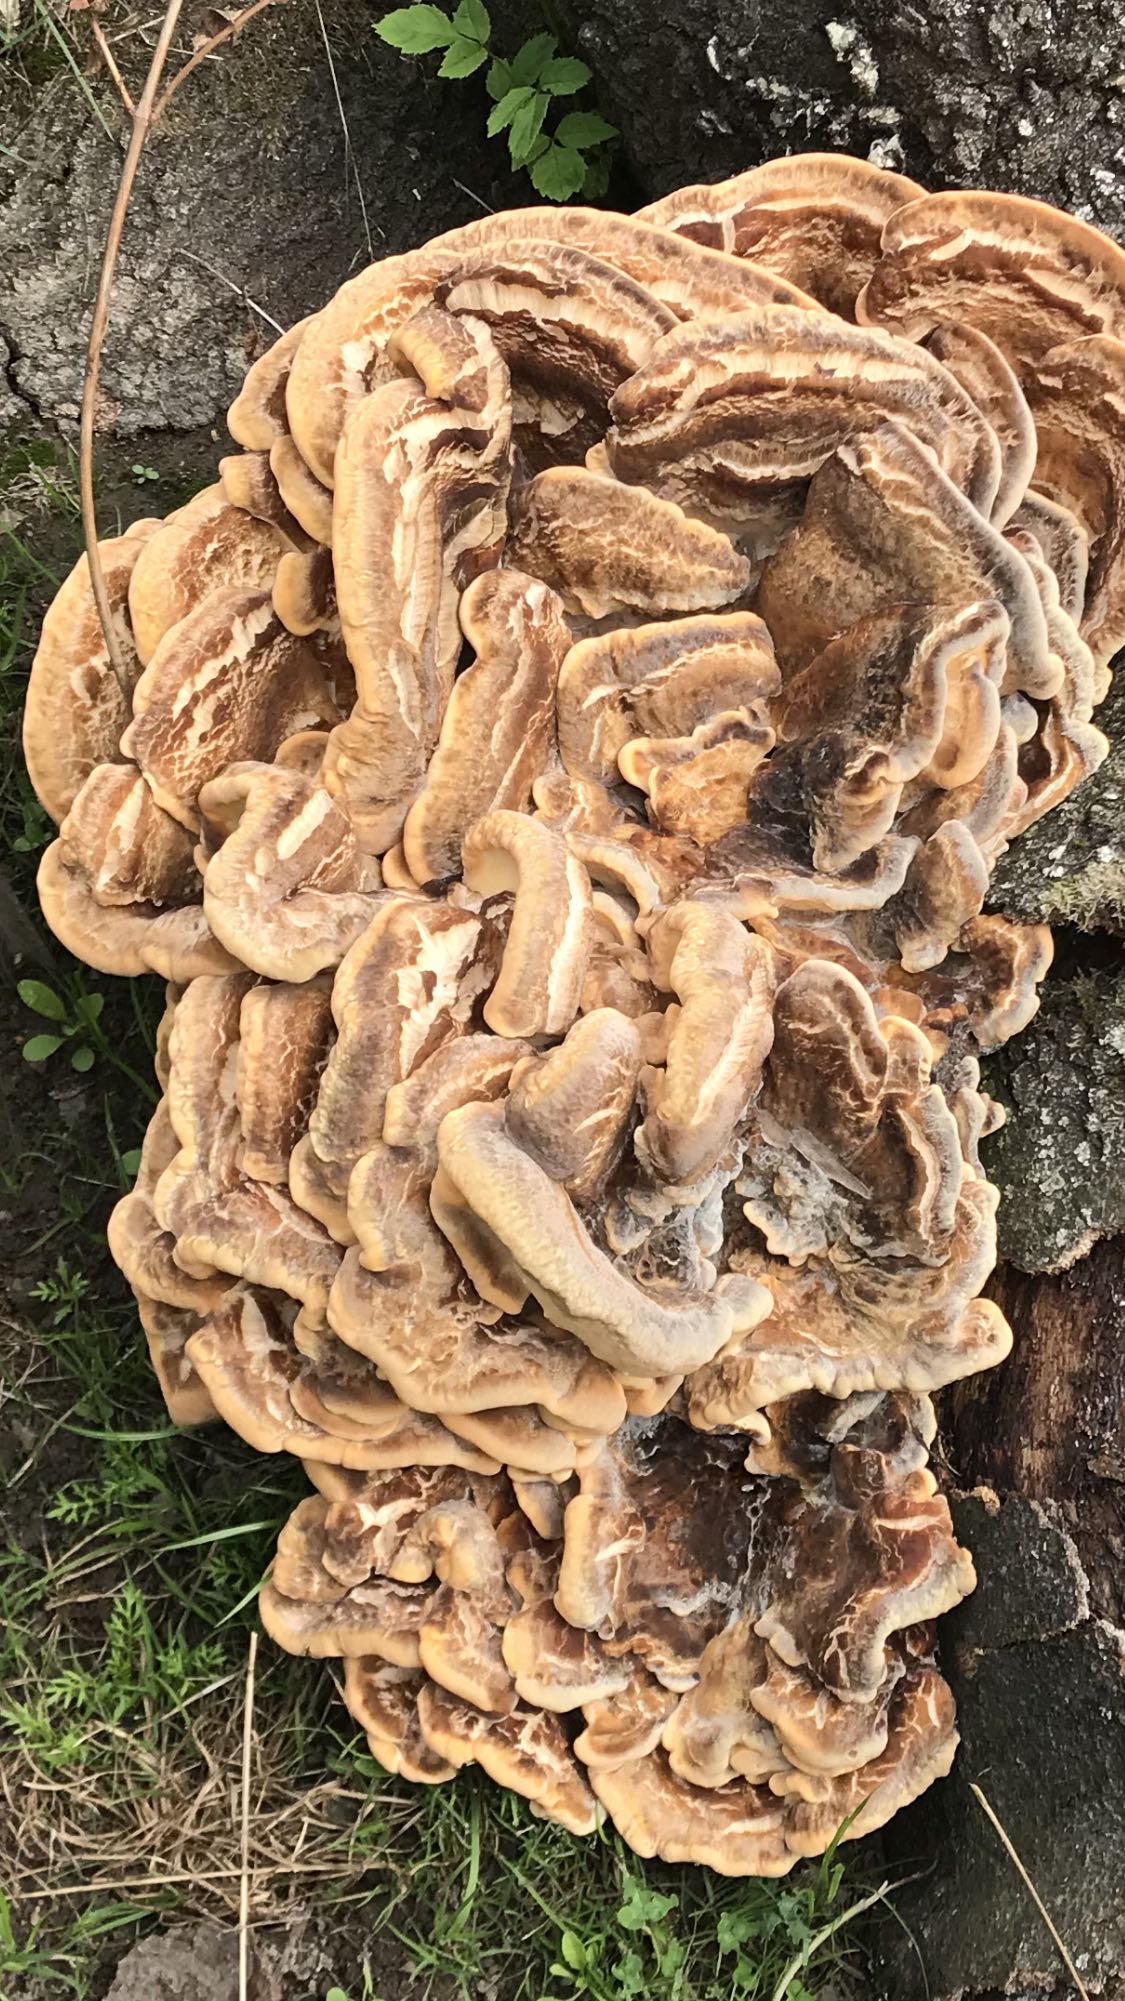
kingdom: Fungi
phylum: Basidiomycota
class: Agaricomycetes
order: Polyporales
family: Meripilaceae
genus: Meripilus
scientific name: Meripilus giganteus
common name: kæmpeporesvamp
